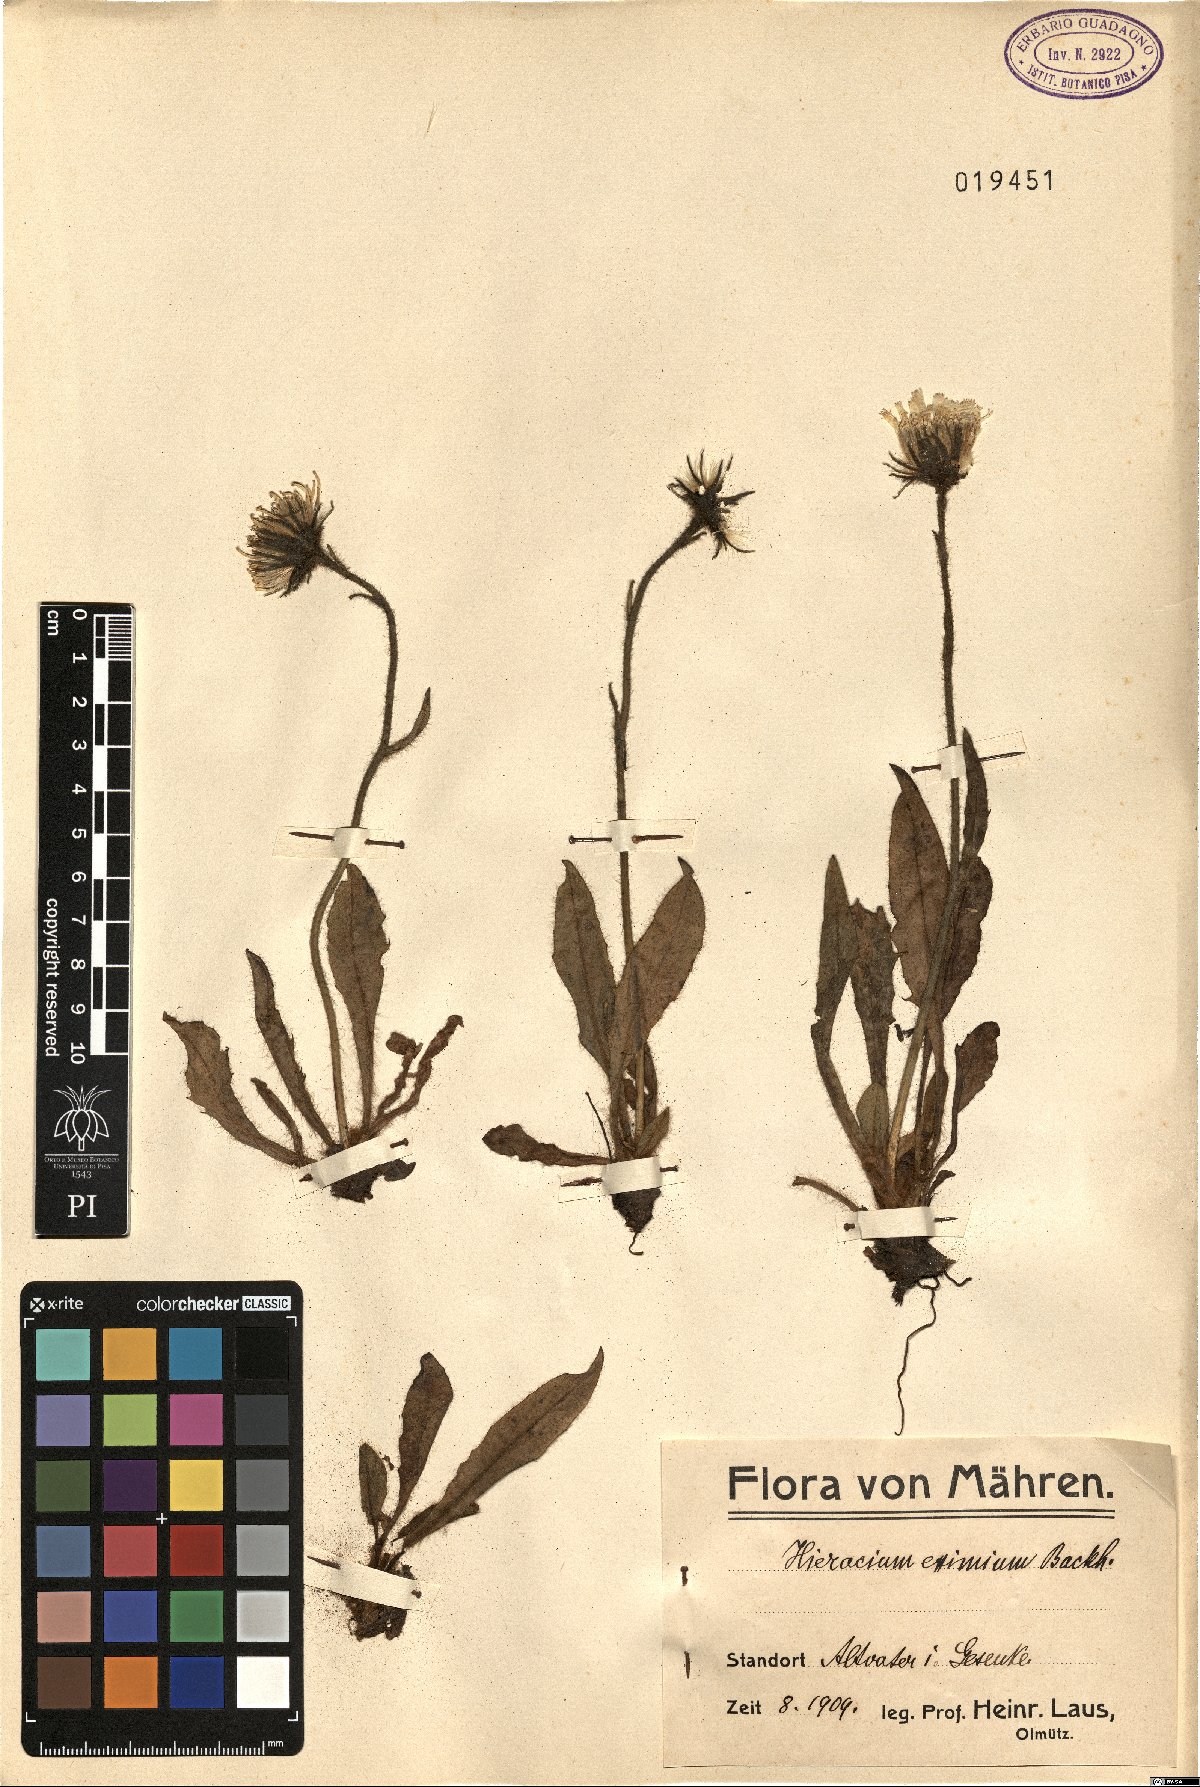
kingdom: Plantae
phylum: Tracheophyta
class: Magnoliopsida
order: Asterales
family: Asteraceae
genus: Hieracium
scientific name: Hieracium eximium
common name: Hirsute hawkweed
